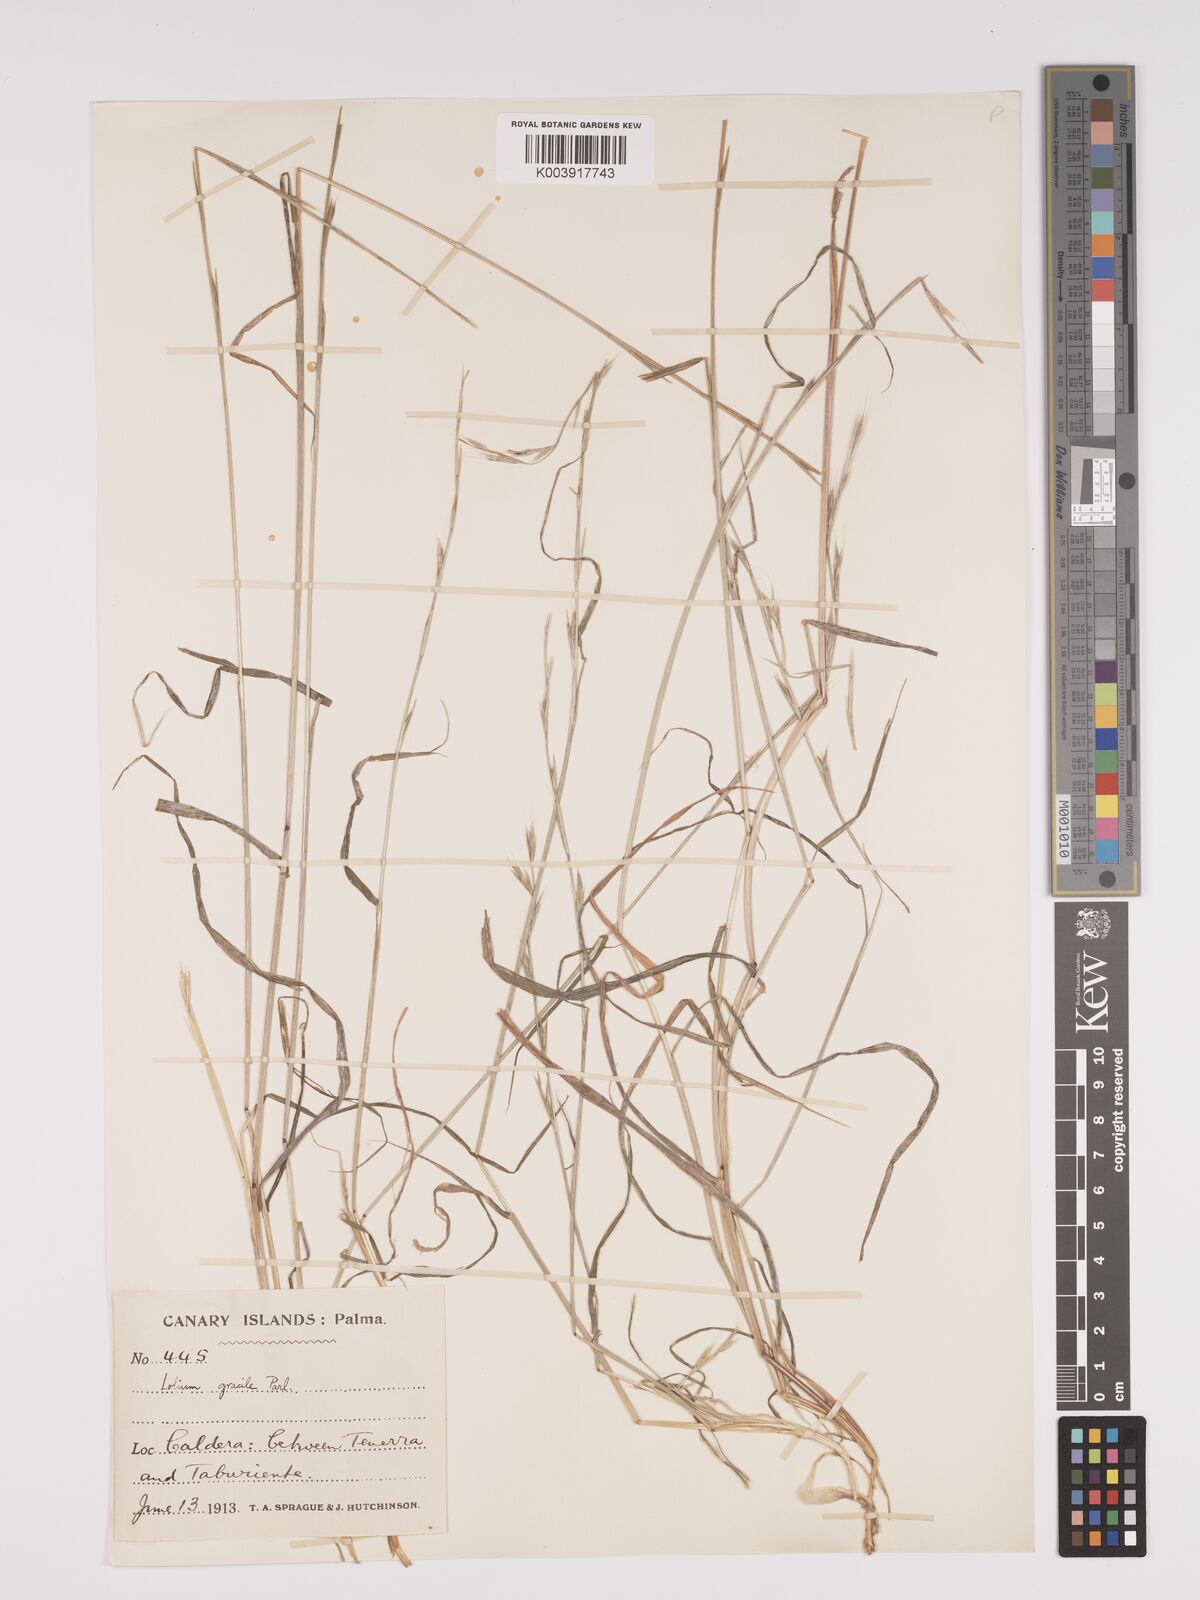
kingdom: Plantae
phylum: Tracheophyta
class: Liliopsida
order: Poales
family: Poaceae
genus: Lolium
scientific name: Lolium canariense
